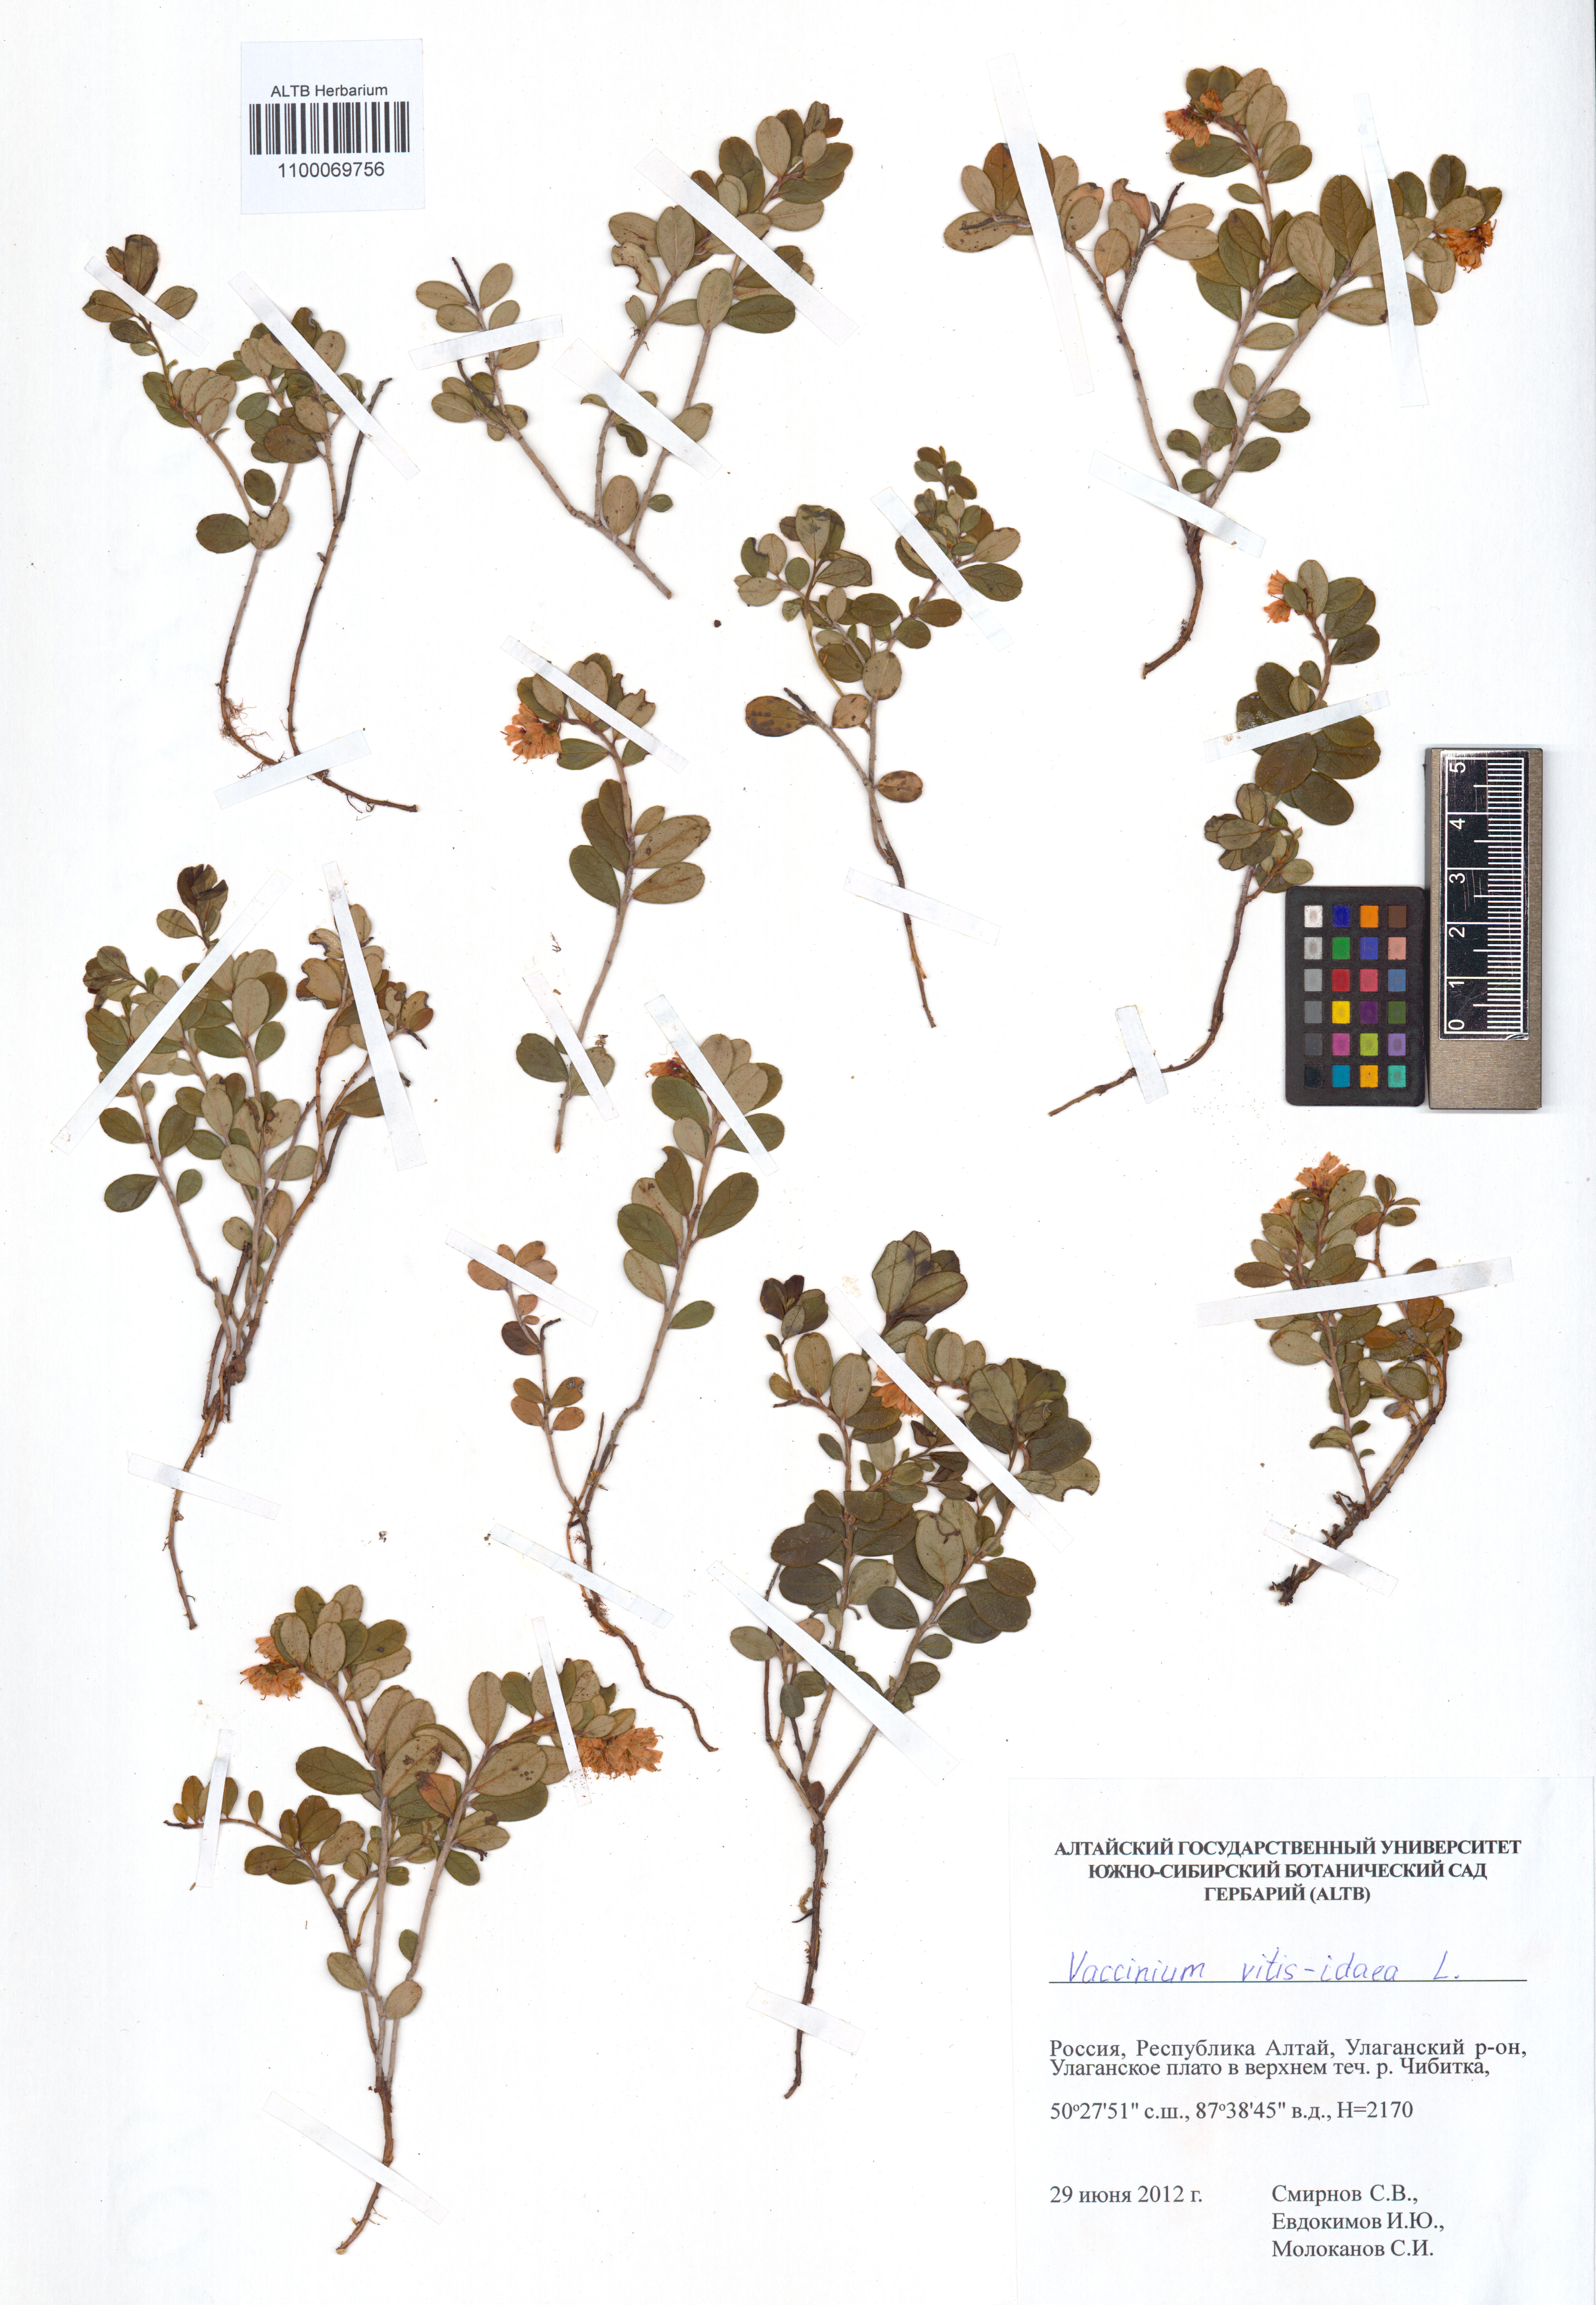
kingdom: Plantae
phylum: Tracheophyta
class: Magnoliopsida
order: Ericales
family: Ericaceae
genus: Vaccinium
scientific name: Vaccinium vitis-idaea
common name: Cowberry
